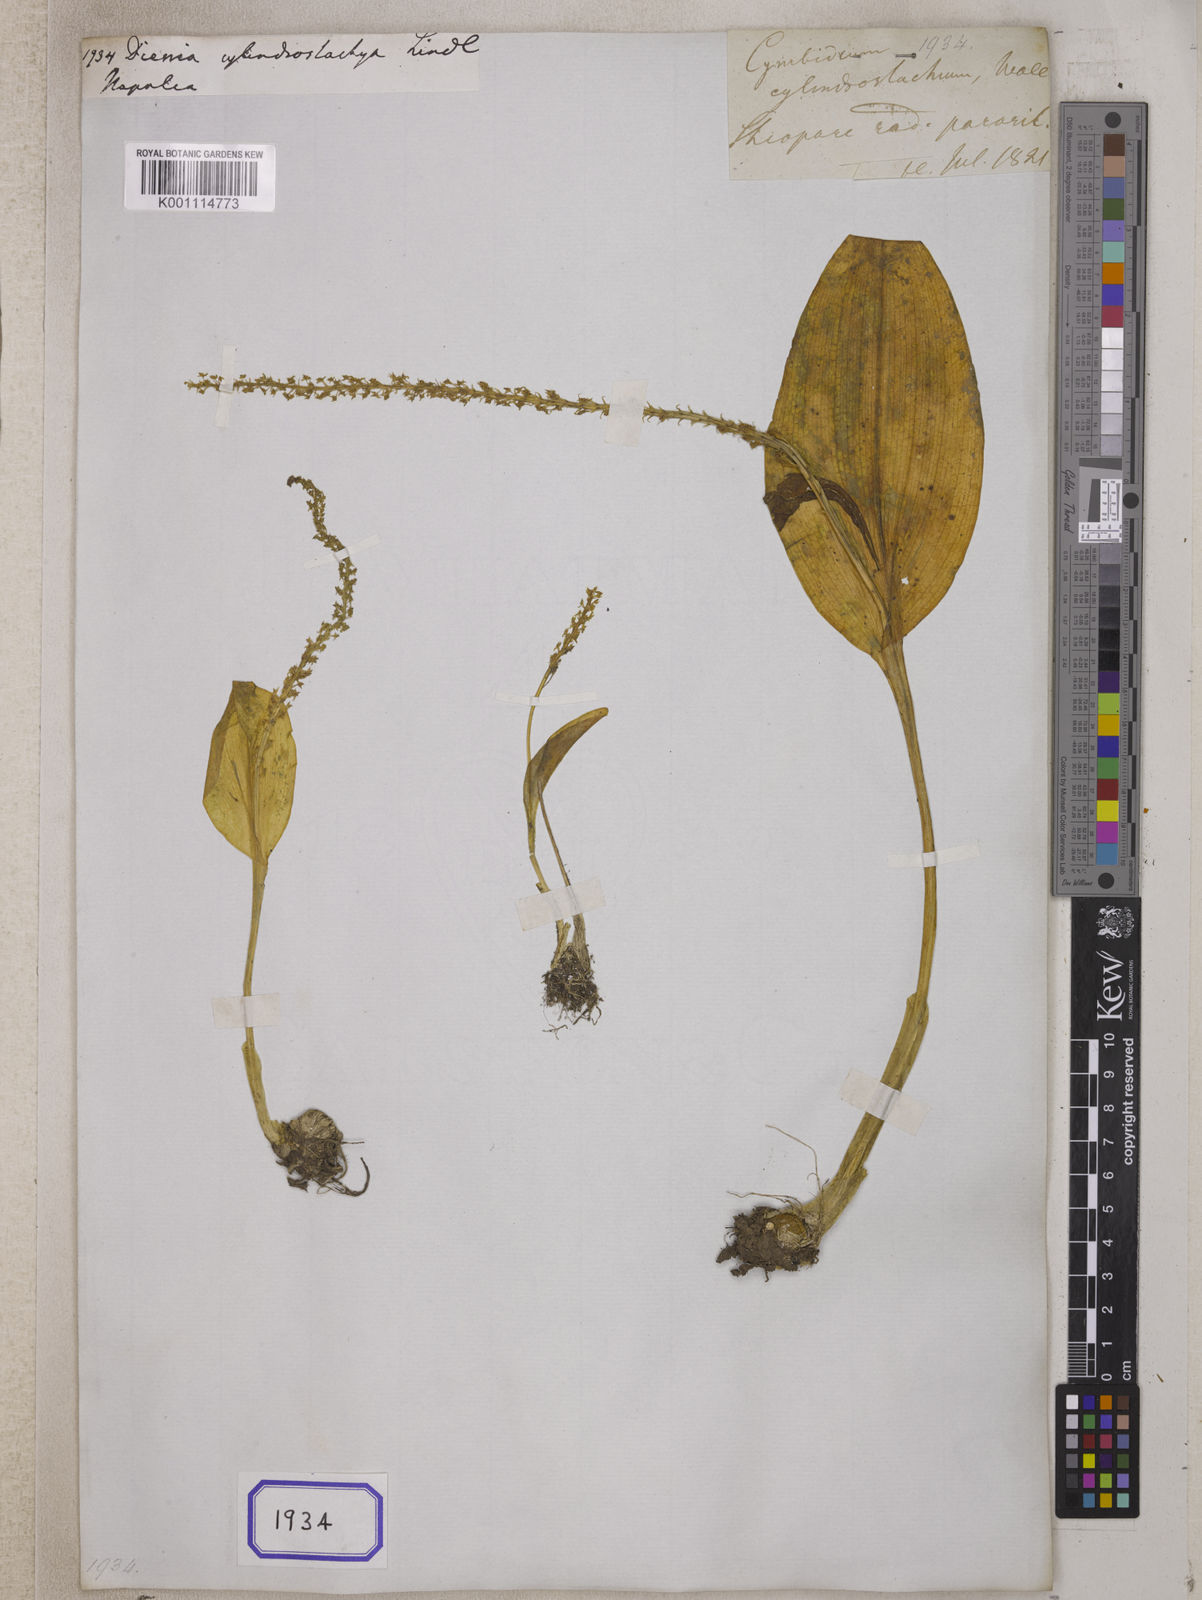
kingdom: Plantae
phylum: Tracheophyta
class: Liliopsida
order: Asparagales
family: Orchidaceae
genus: Dienia
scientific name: Dienia cylindrostachya
